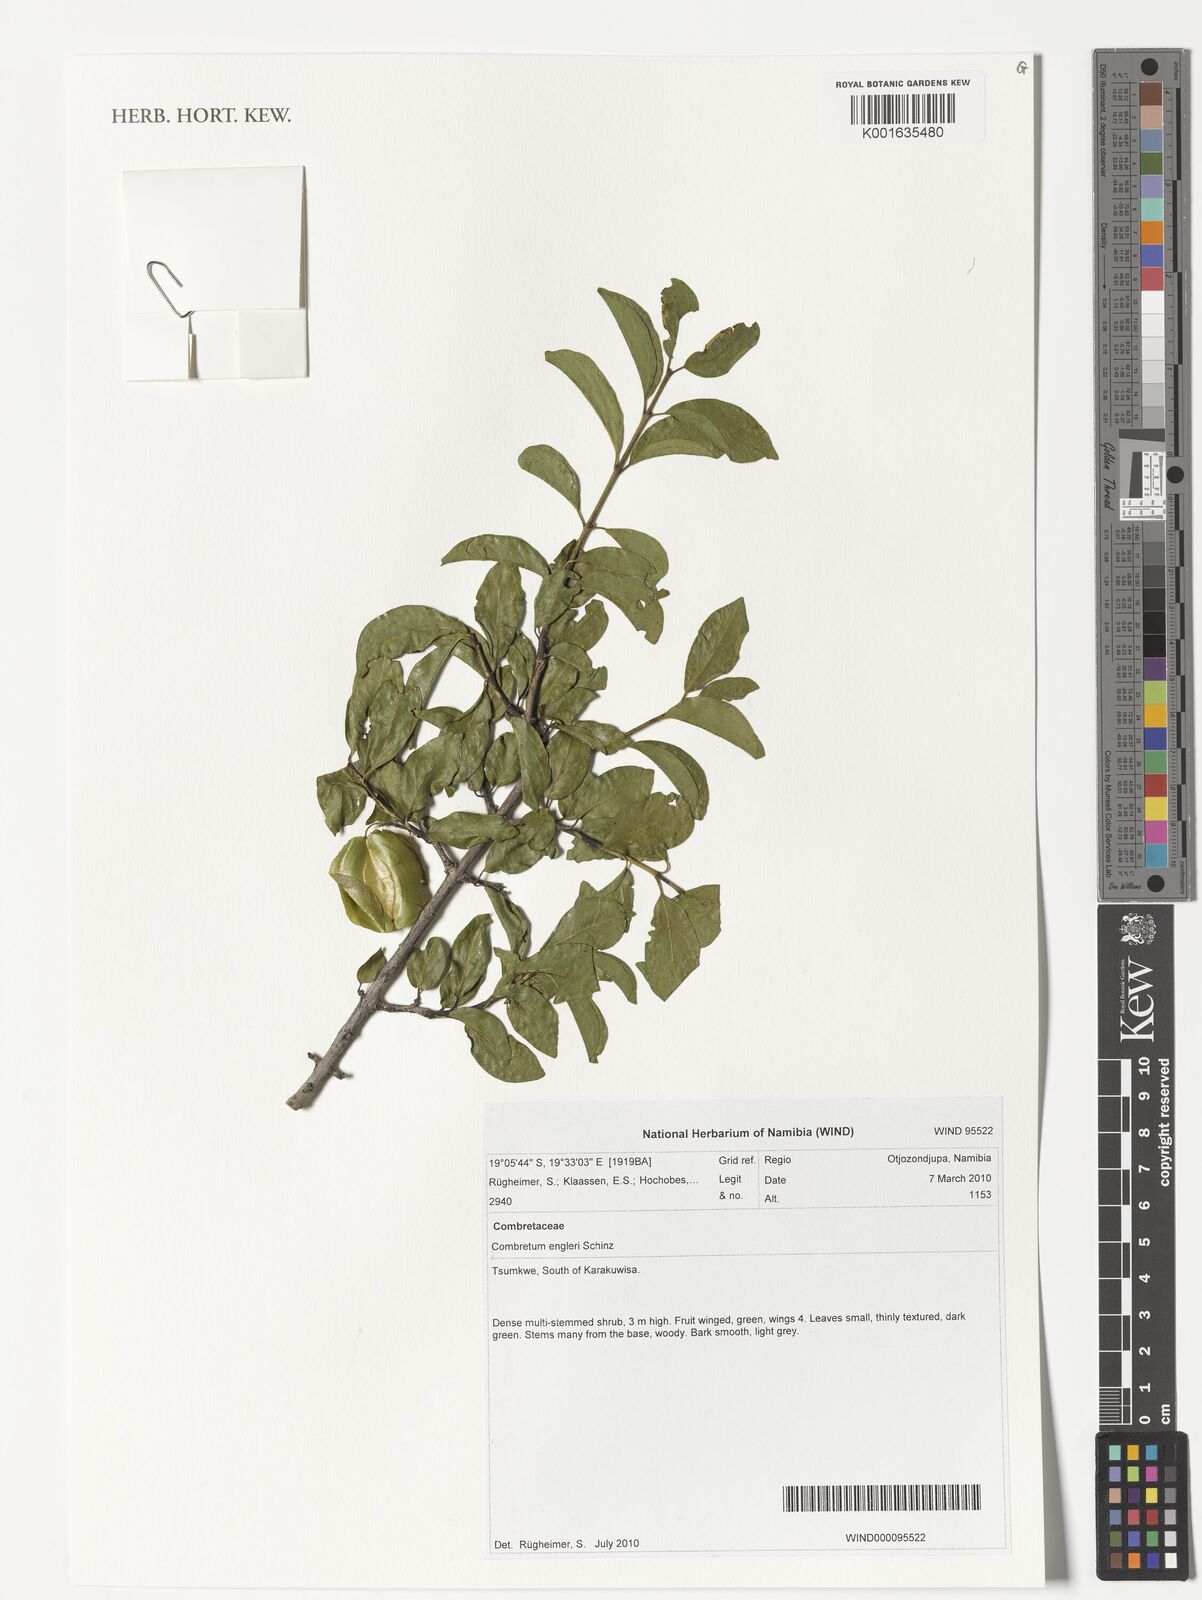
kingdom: Plantae
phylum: Tracheophyta
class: Magnoliopsida
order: Myrtales
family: Combretaceae
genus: Combretum
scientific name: Combretum
